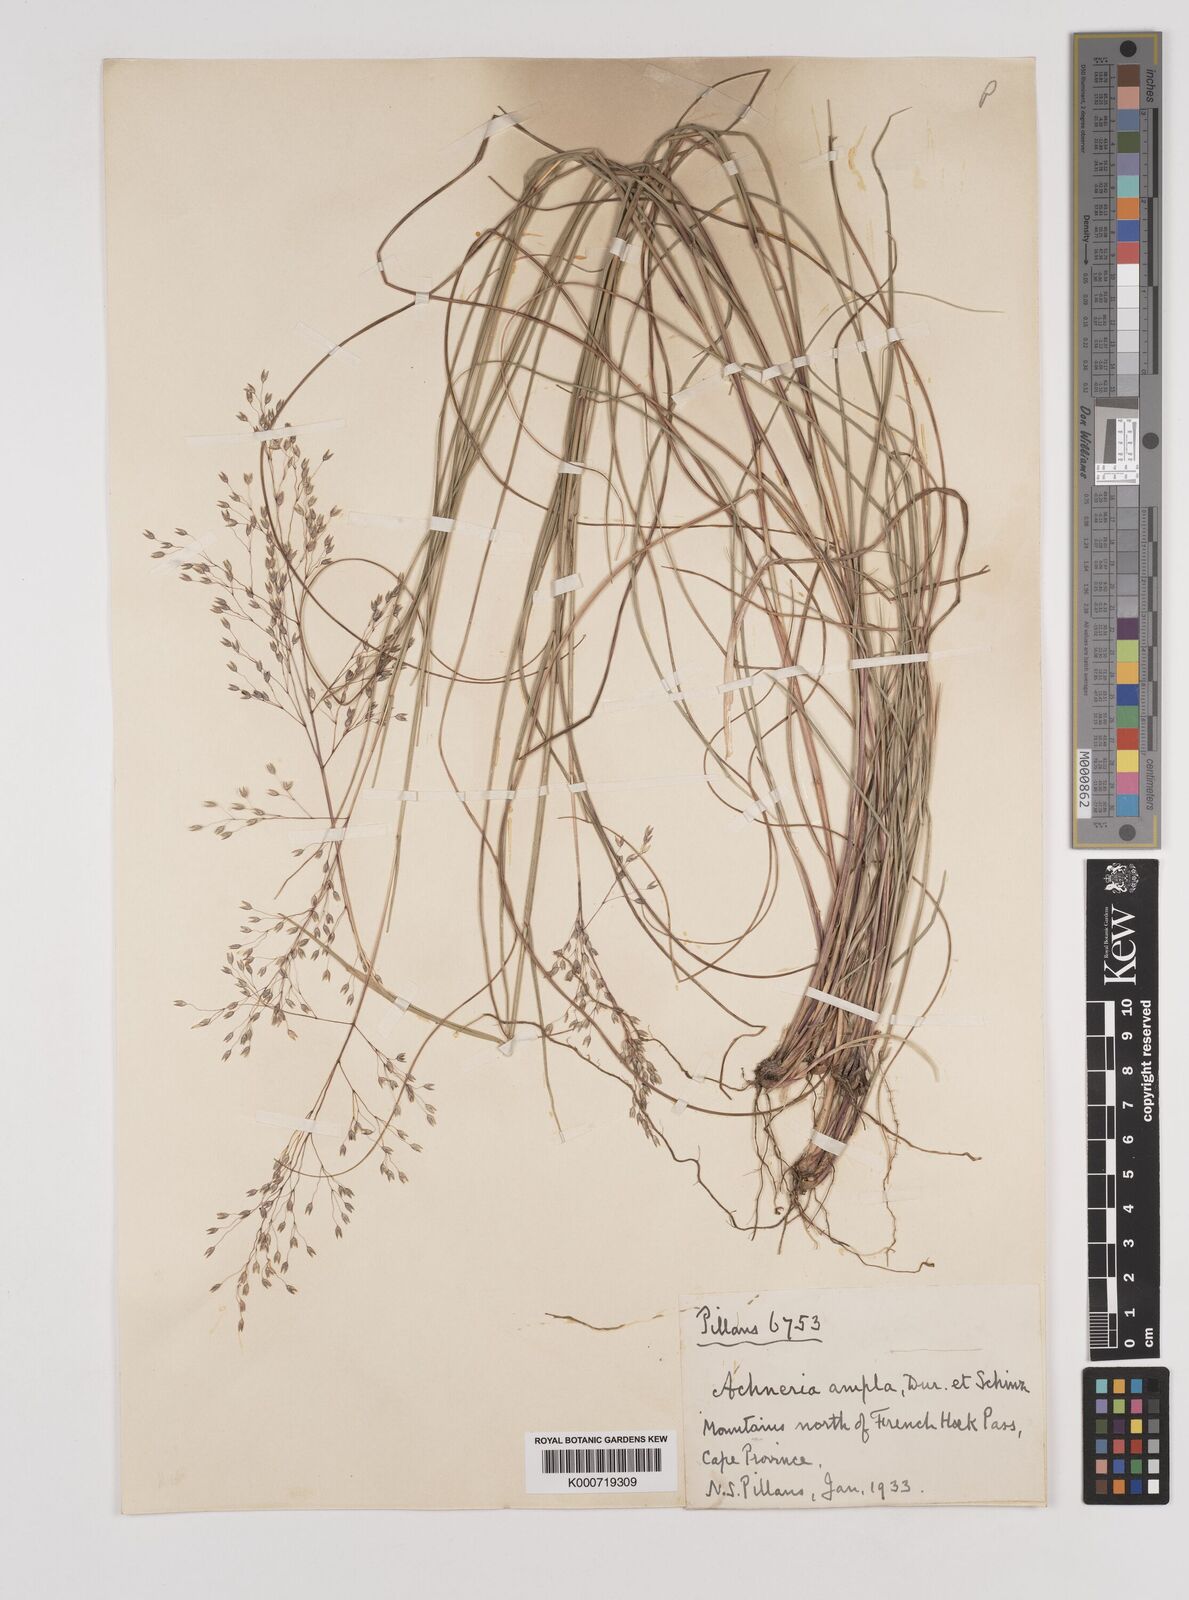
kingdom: Plantae
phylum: Tracheophyta
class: Liliopsida
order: Poales
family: Poaceae
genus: Pentameris
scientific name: Pentameris ampla
